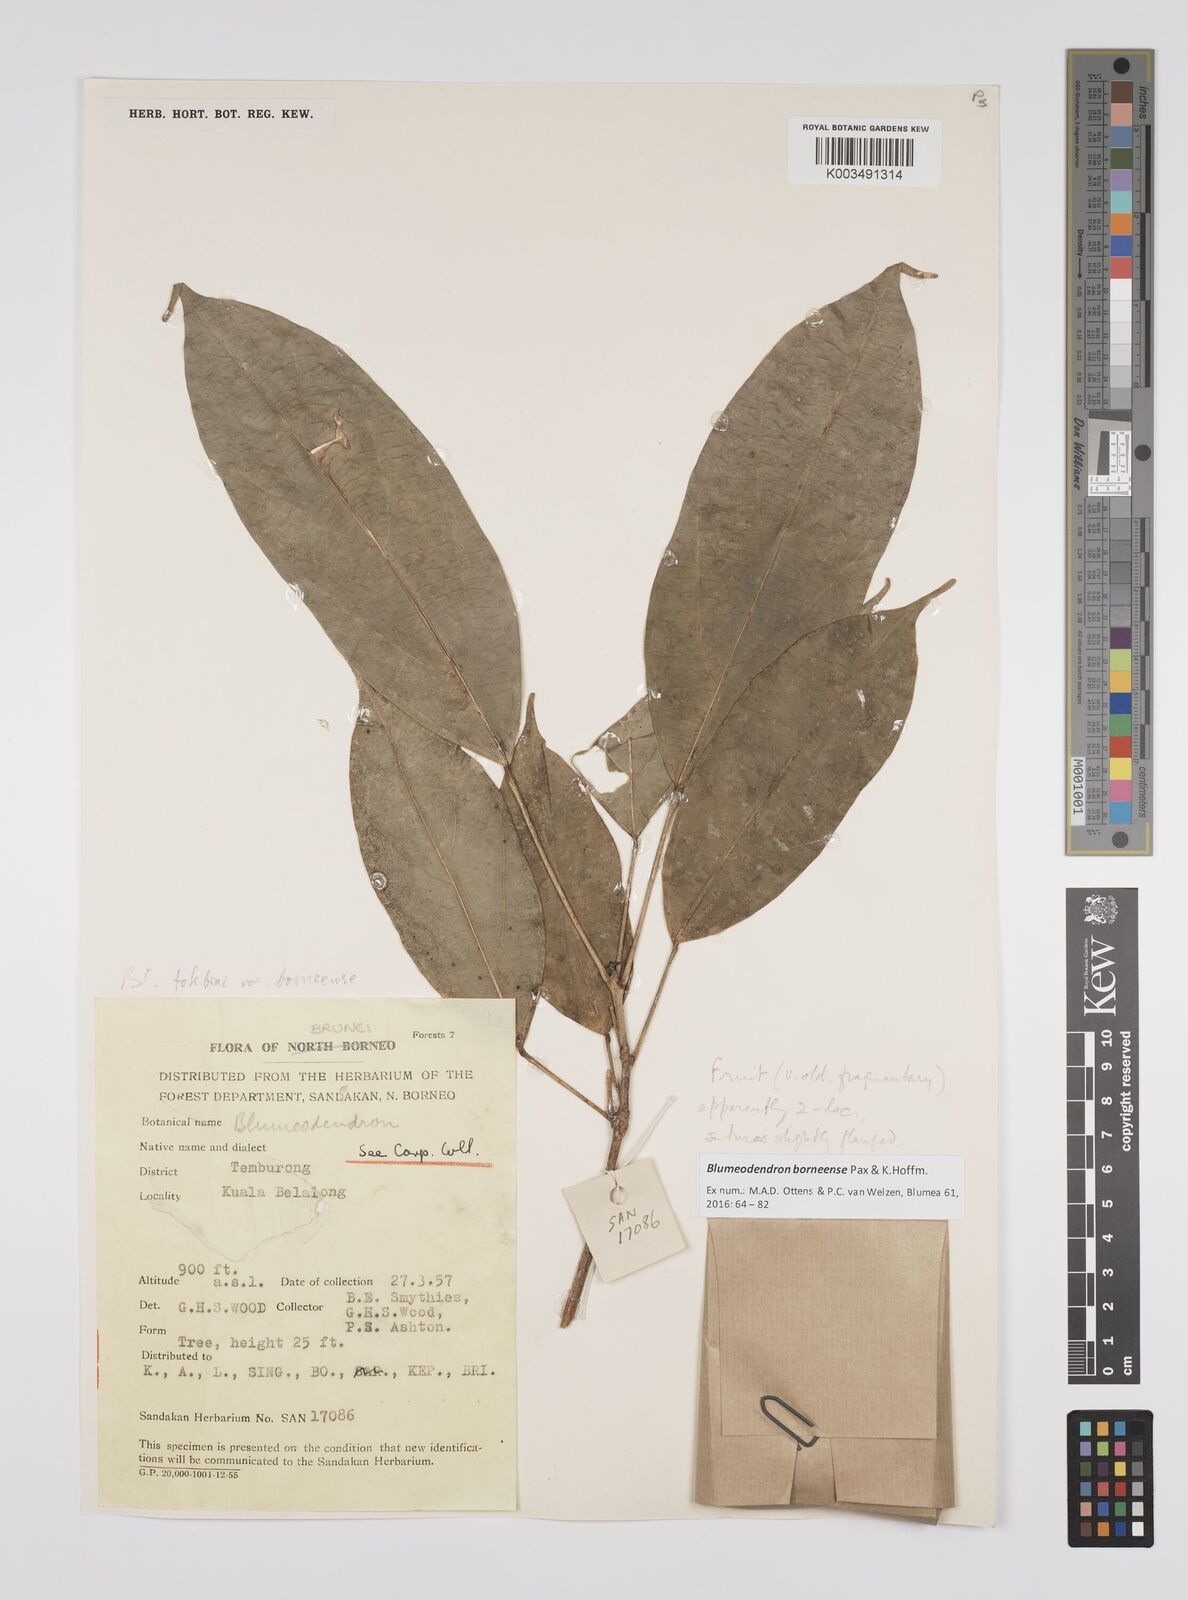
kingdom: Plantae
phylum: Tracheophyta
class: Magnoliopsida
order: Malpighiales
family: Euphorbiaceae
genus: Blumeodendron
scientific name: Blumeodendron borneense
